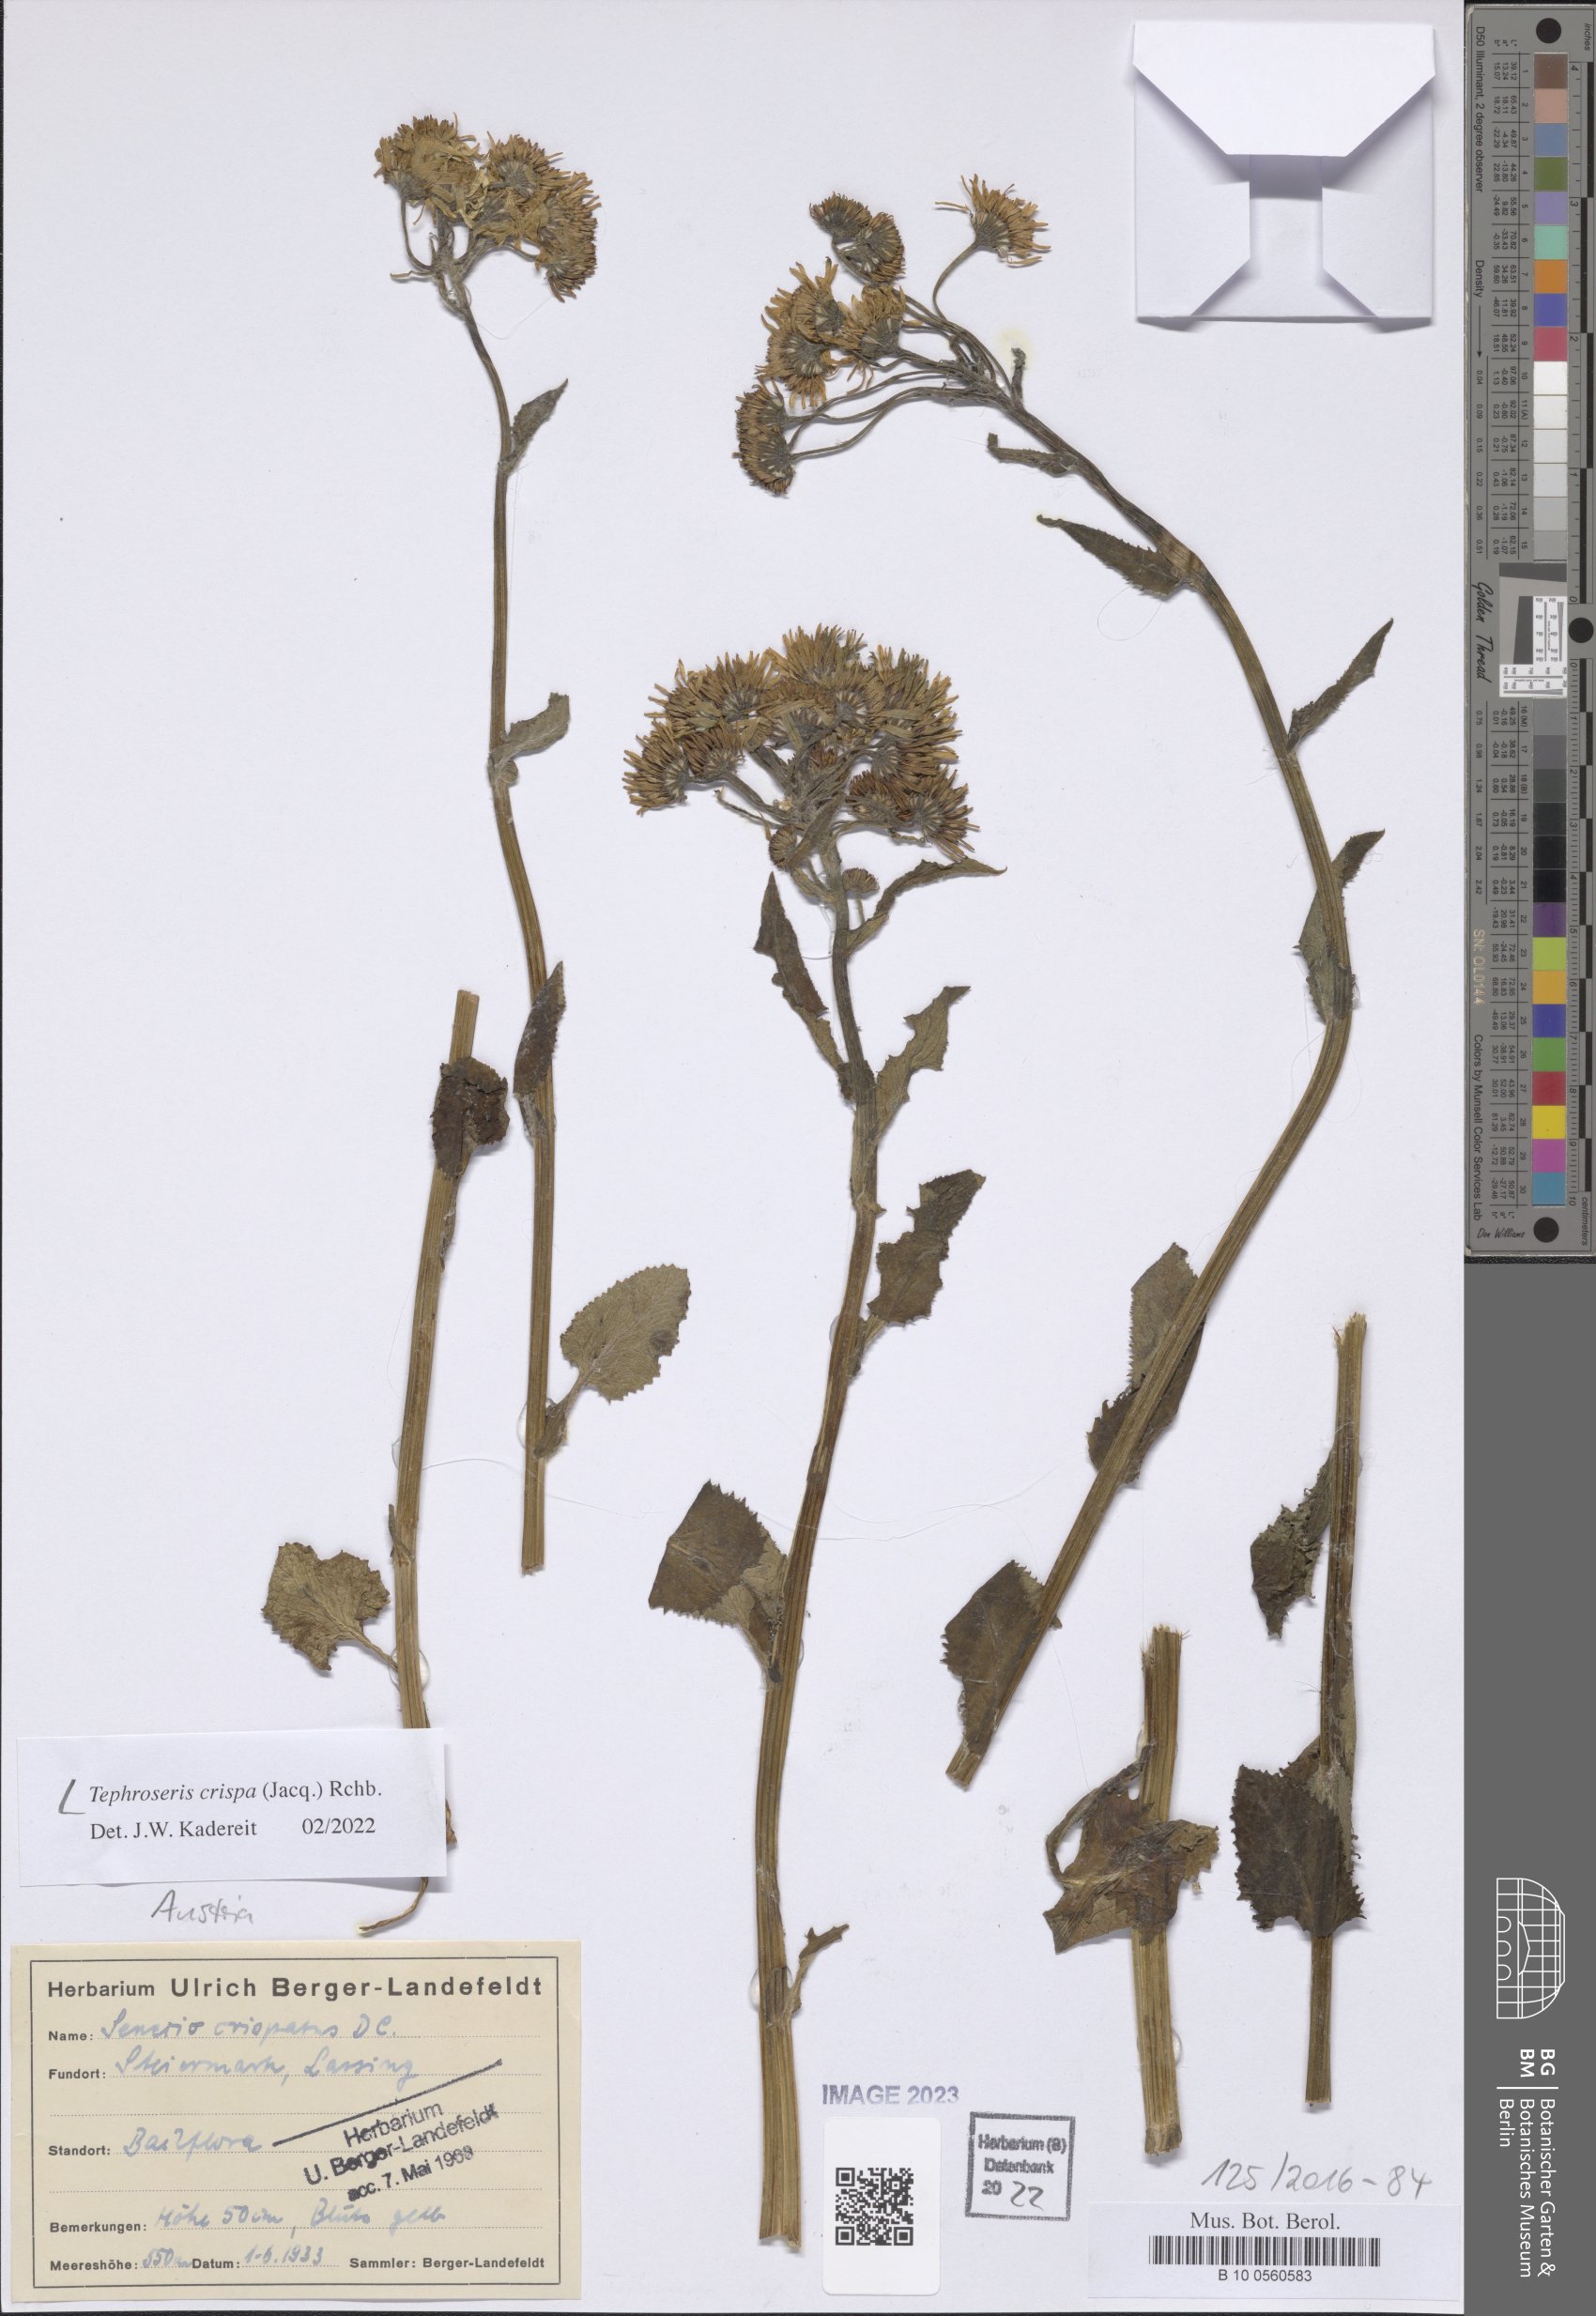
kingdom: Plantae
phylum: Tracheophyta
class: Magnoliopsida
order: Asterales
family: Asteraceae
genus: Tephroseris
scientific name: Tephroseris crispa
